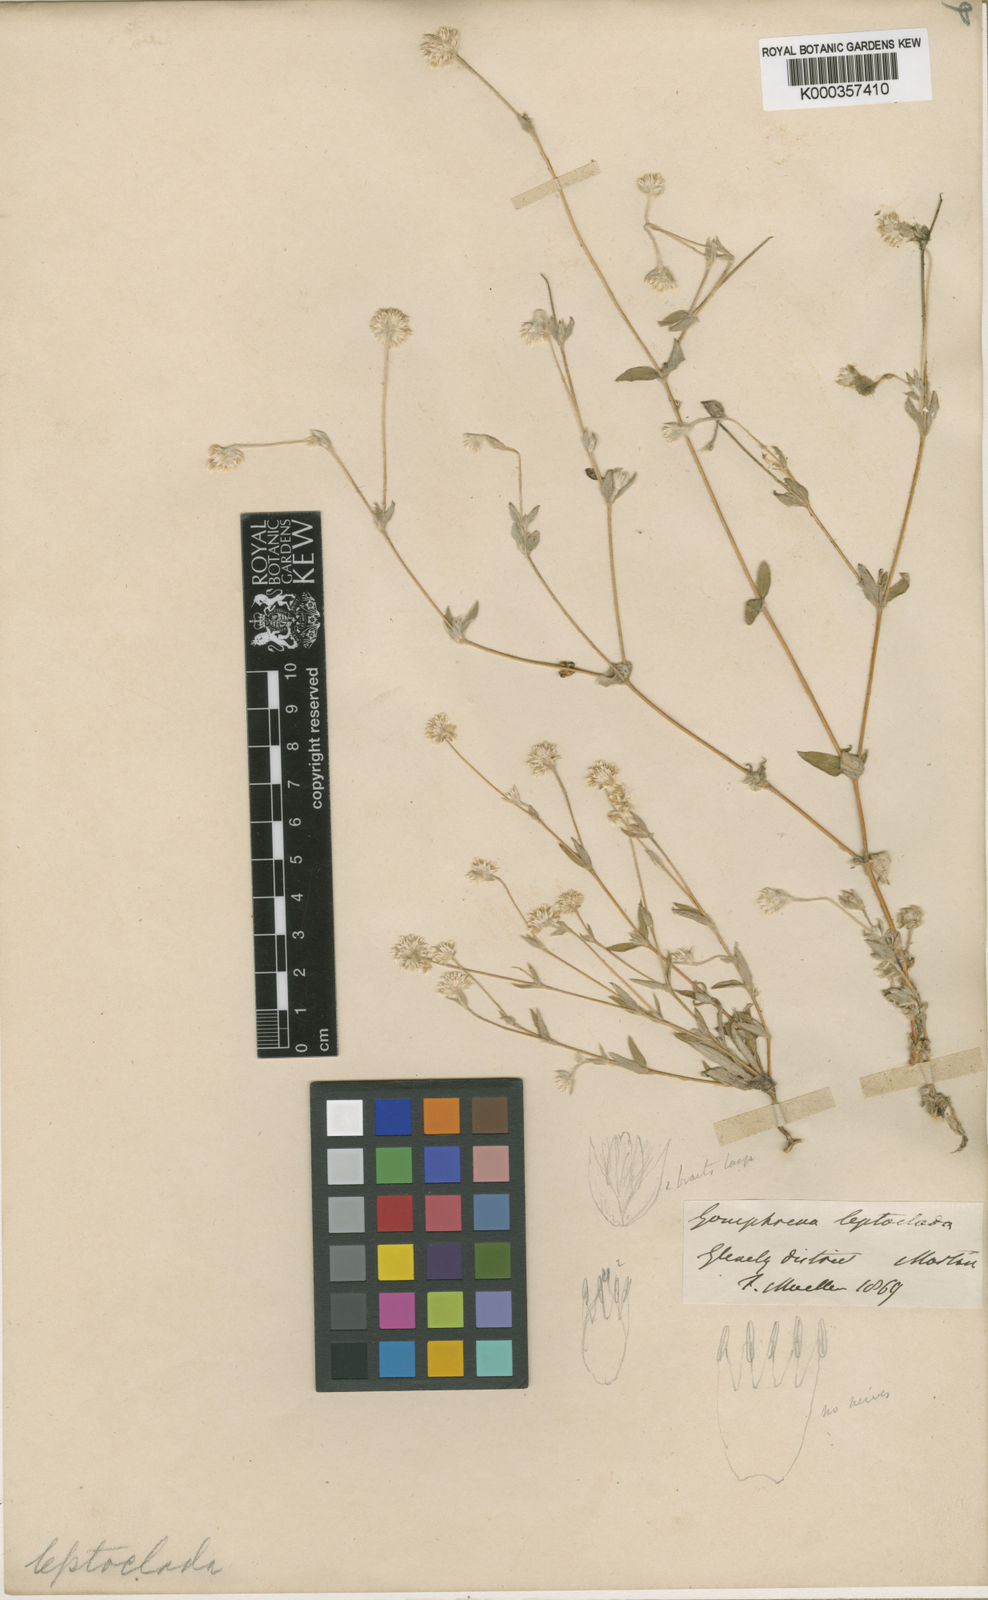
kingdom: Plantae
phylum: Tracheophyta
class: Magnoliopsida
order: Caryophyllales
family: Amaranthaceae
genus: Gomphrena
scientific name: Gomphrena leptoclada
